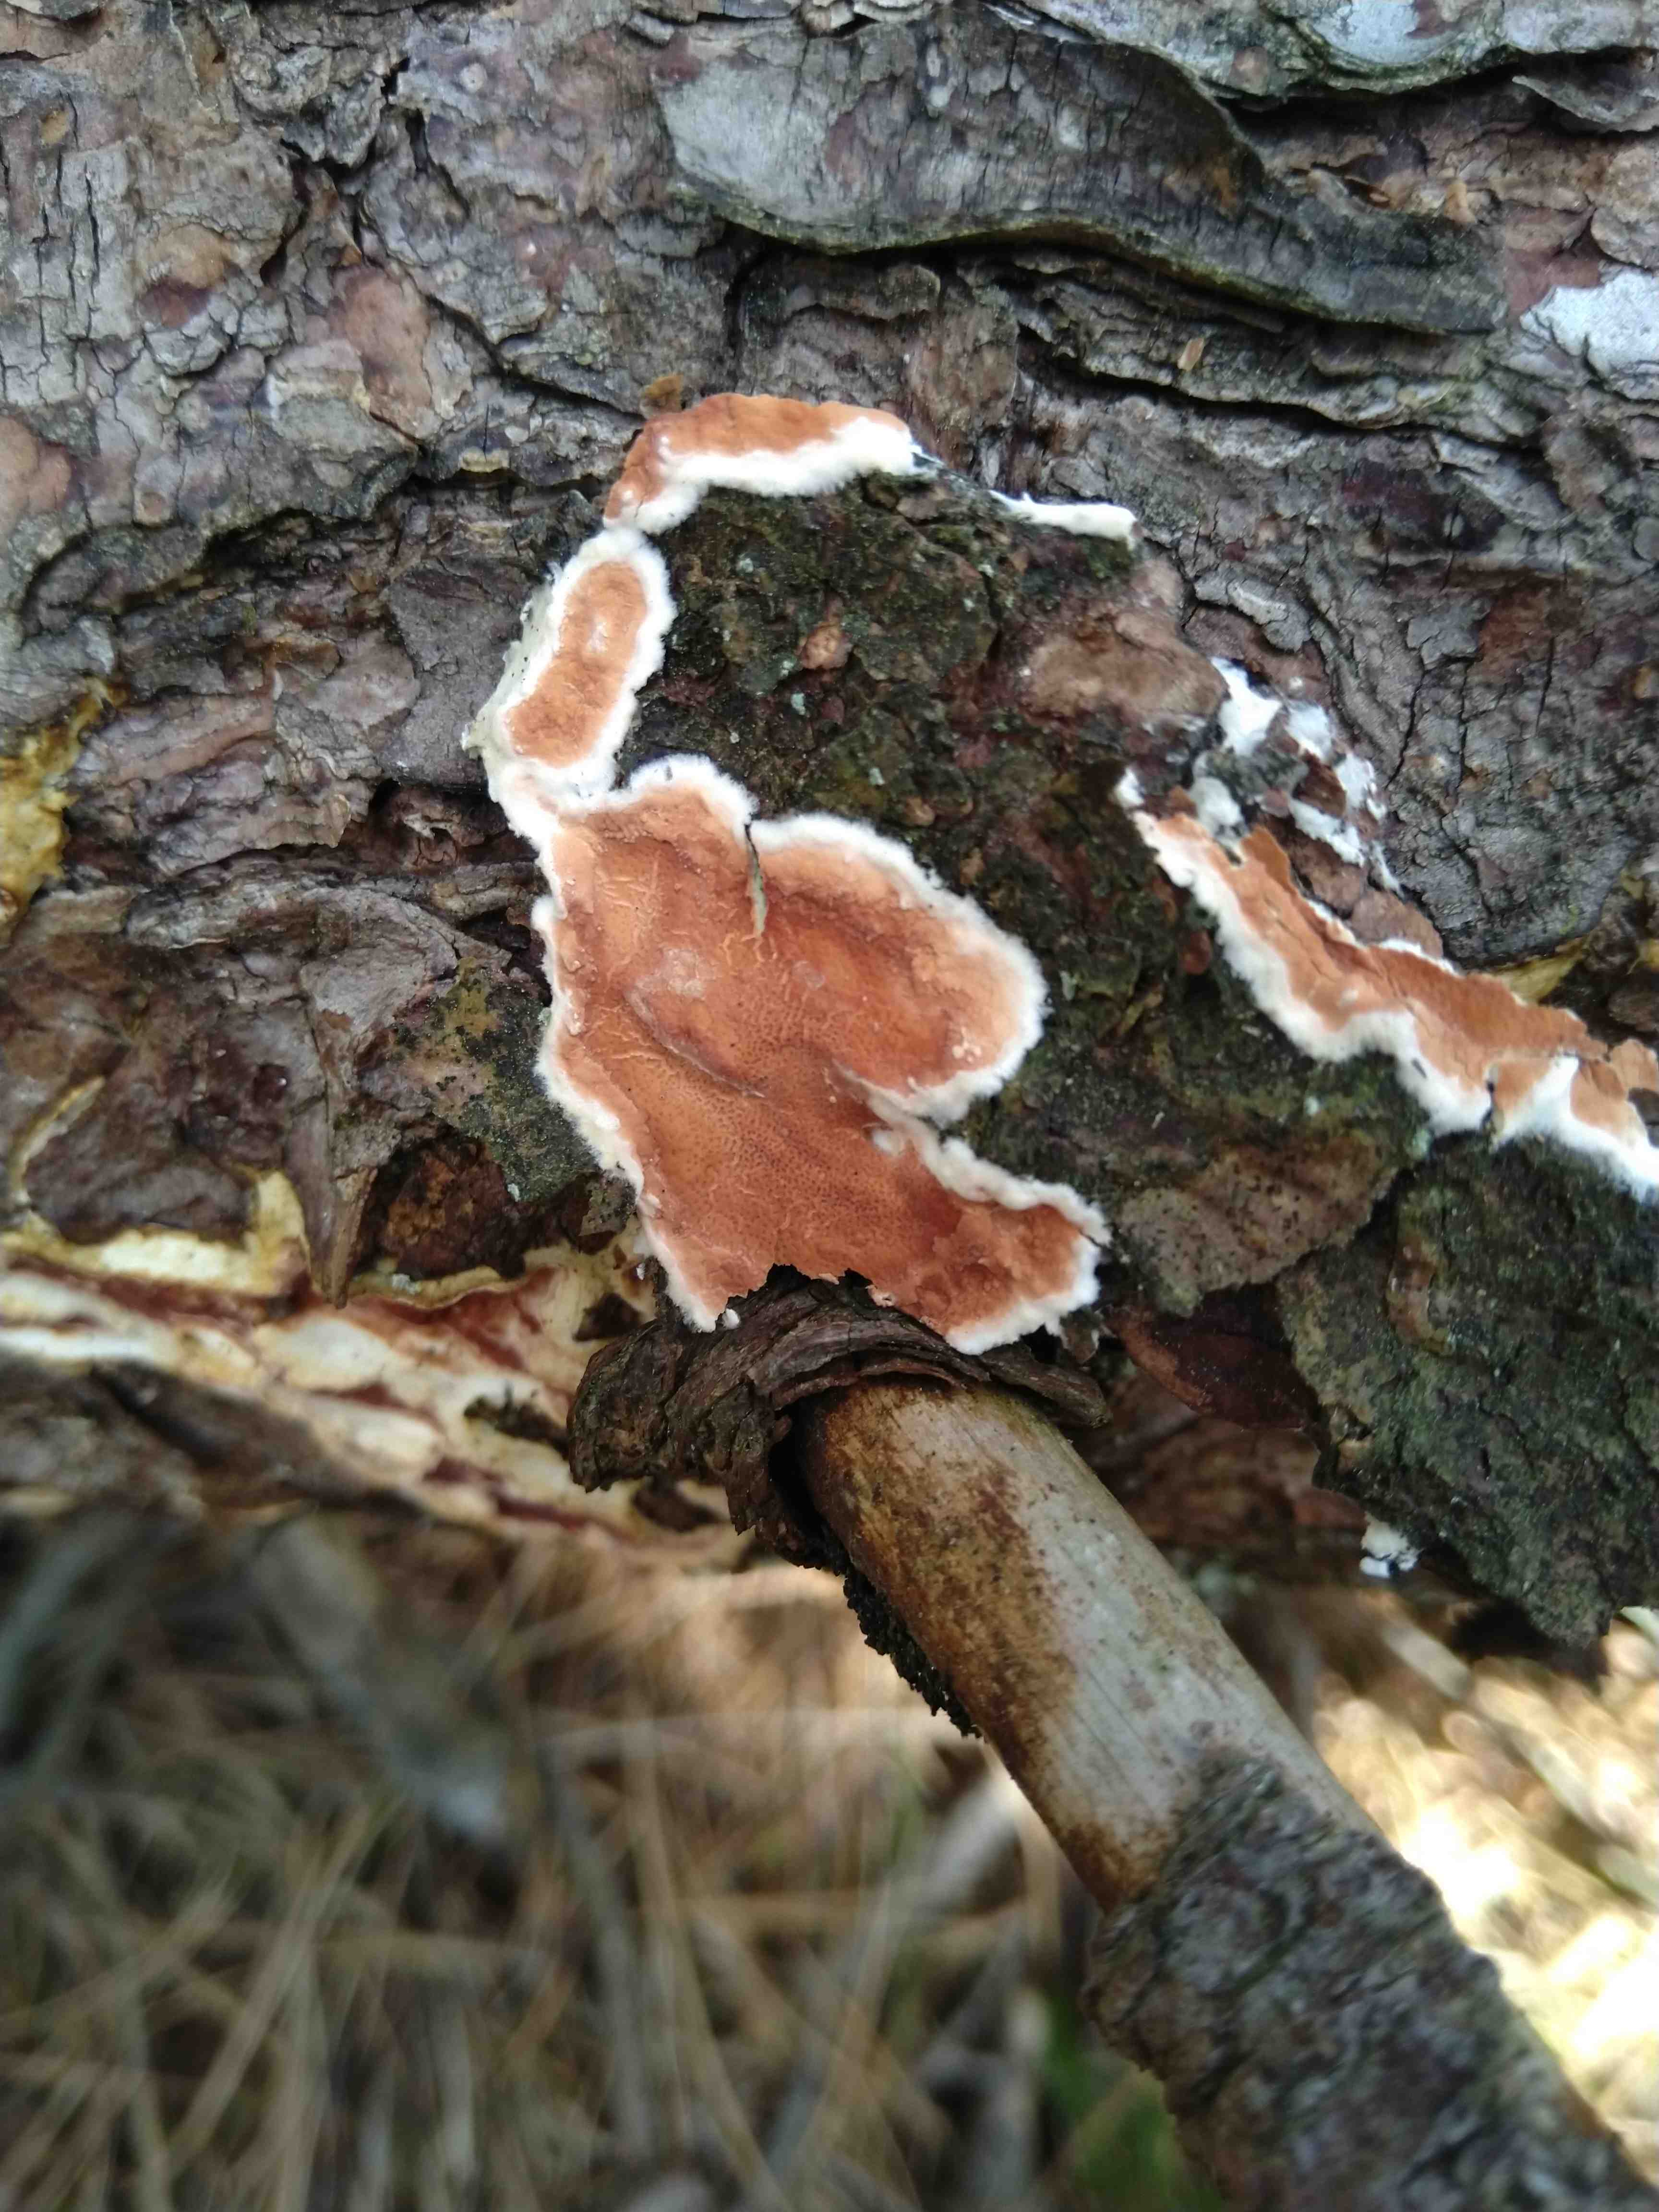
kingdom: Fungi
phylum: Basidiomycota
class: Agaricomycetes
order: Polyporales
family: Irpicaceae
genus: Meruliopsis
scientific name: Meruliopsis taxicola
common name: purpurbrun foldporesvamp
